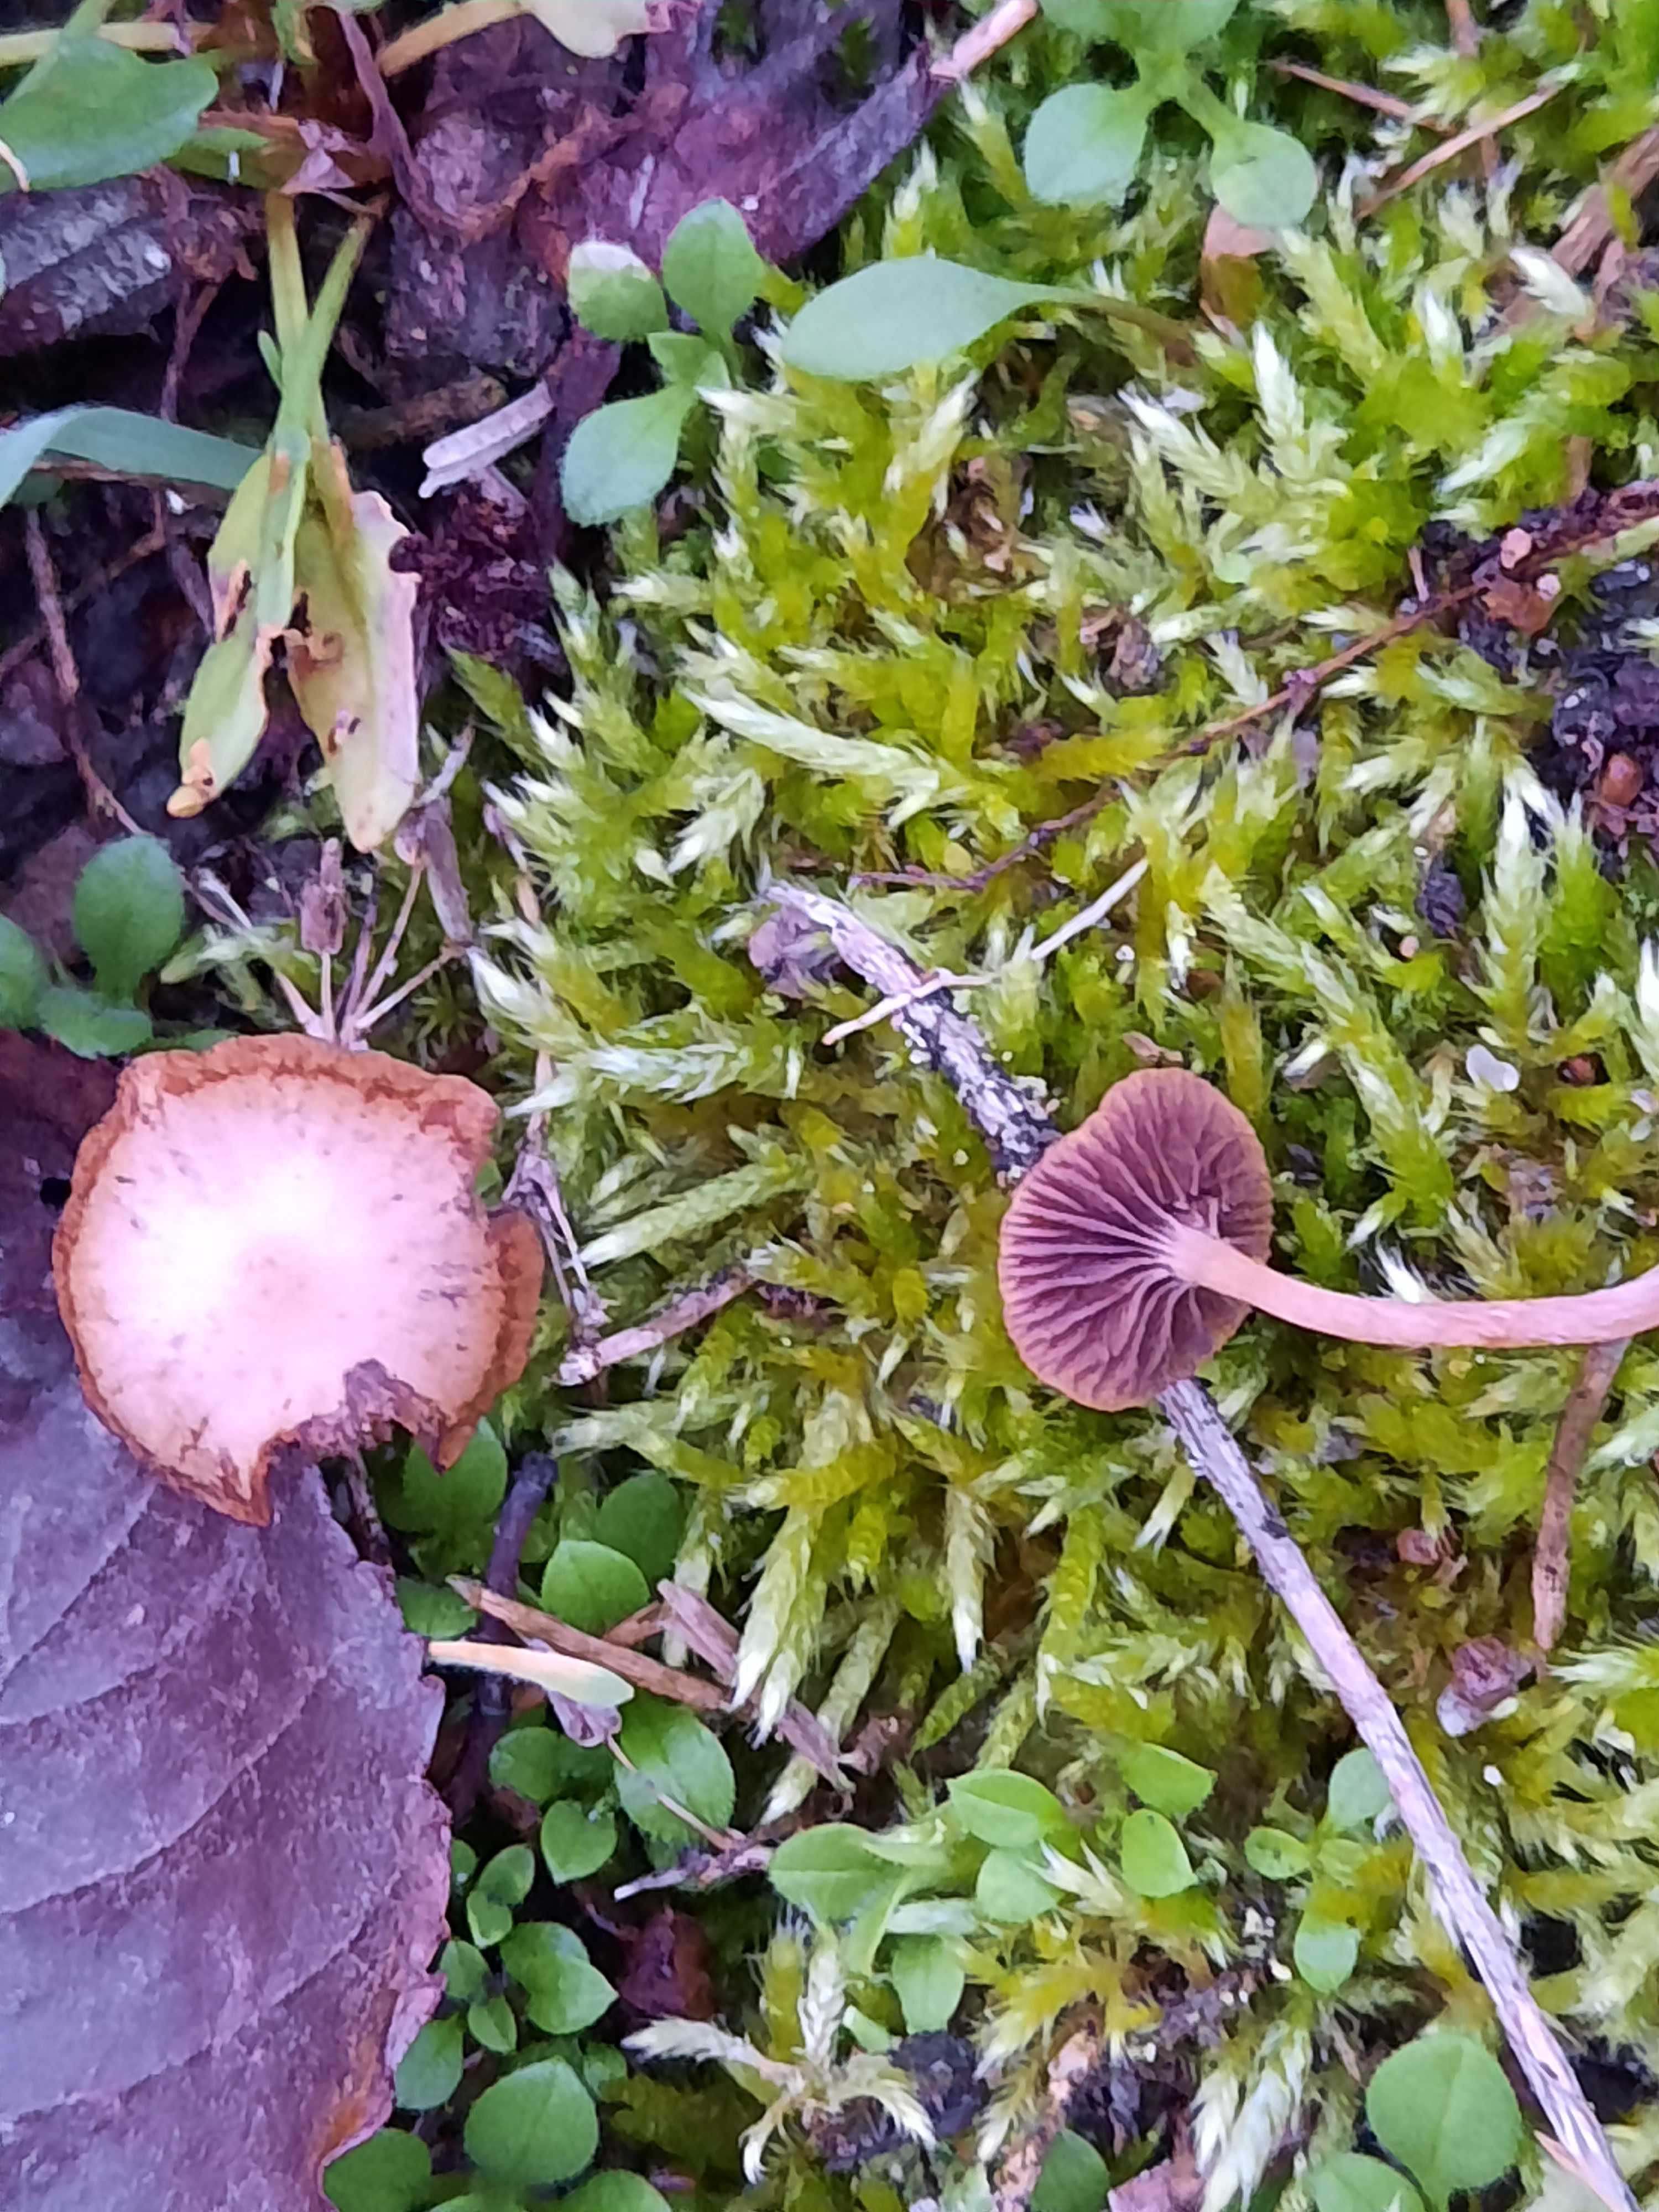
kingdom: Fungi
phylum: Basidiomycota
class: Agaricomycetes
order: Agaricales
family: Strophariaceae
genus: Deconica
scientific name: Deconica montana
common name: rødbrun stråhat
